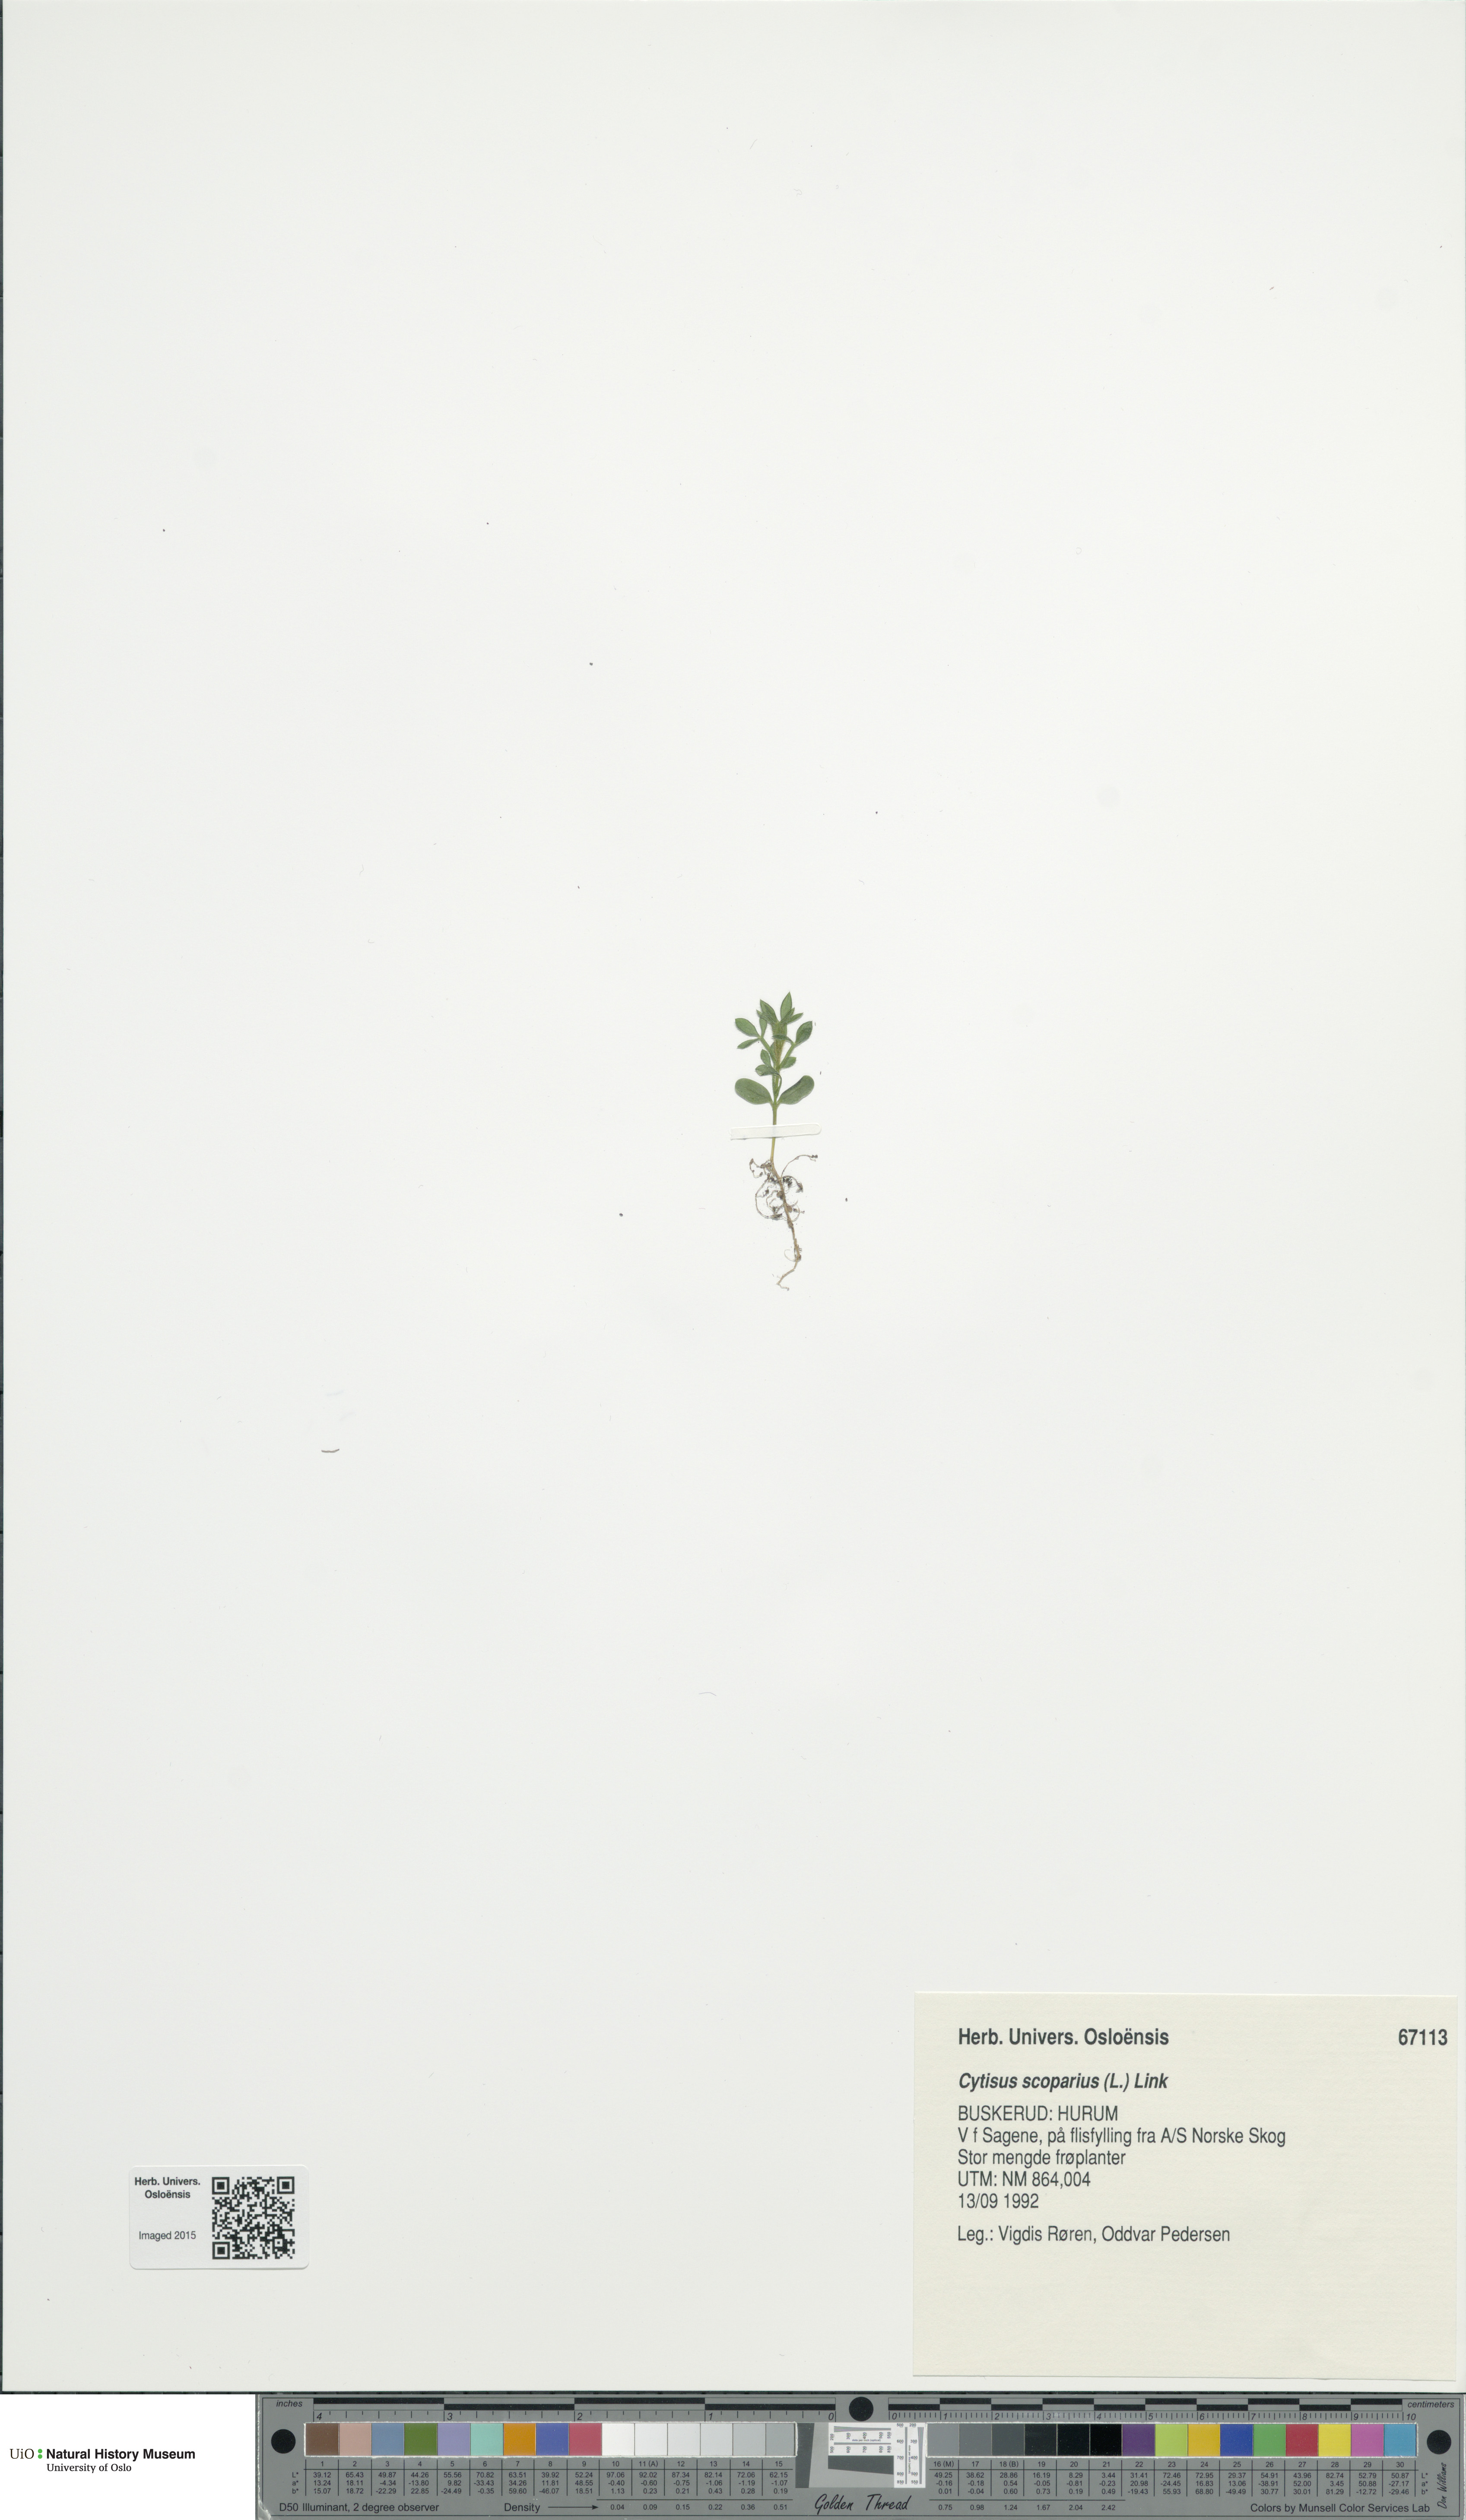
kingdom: Plantae
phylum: Tracheophyta
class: Magnoliopsida
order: Fabales
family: Fabaceae
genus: Cytisus
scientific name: Cytisus scoparius
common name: Scotch broom
